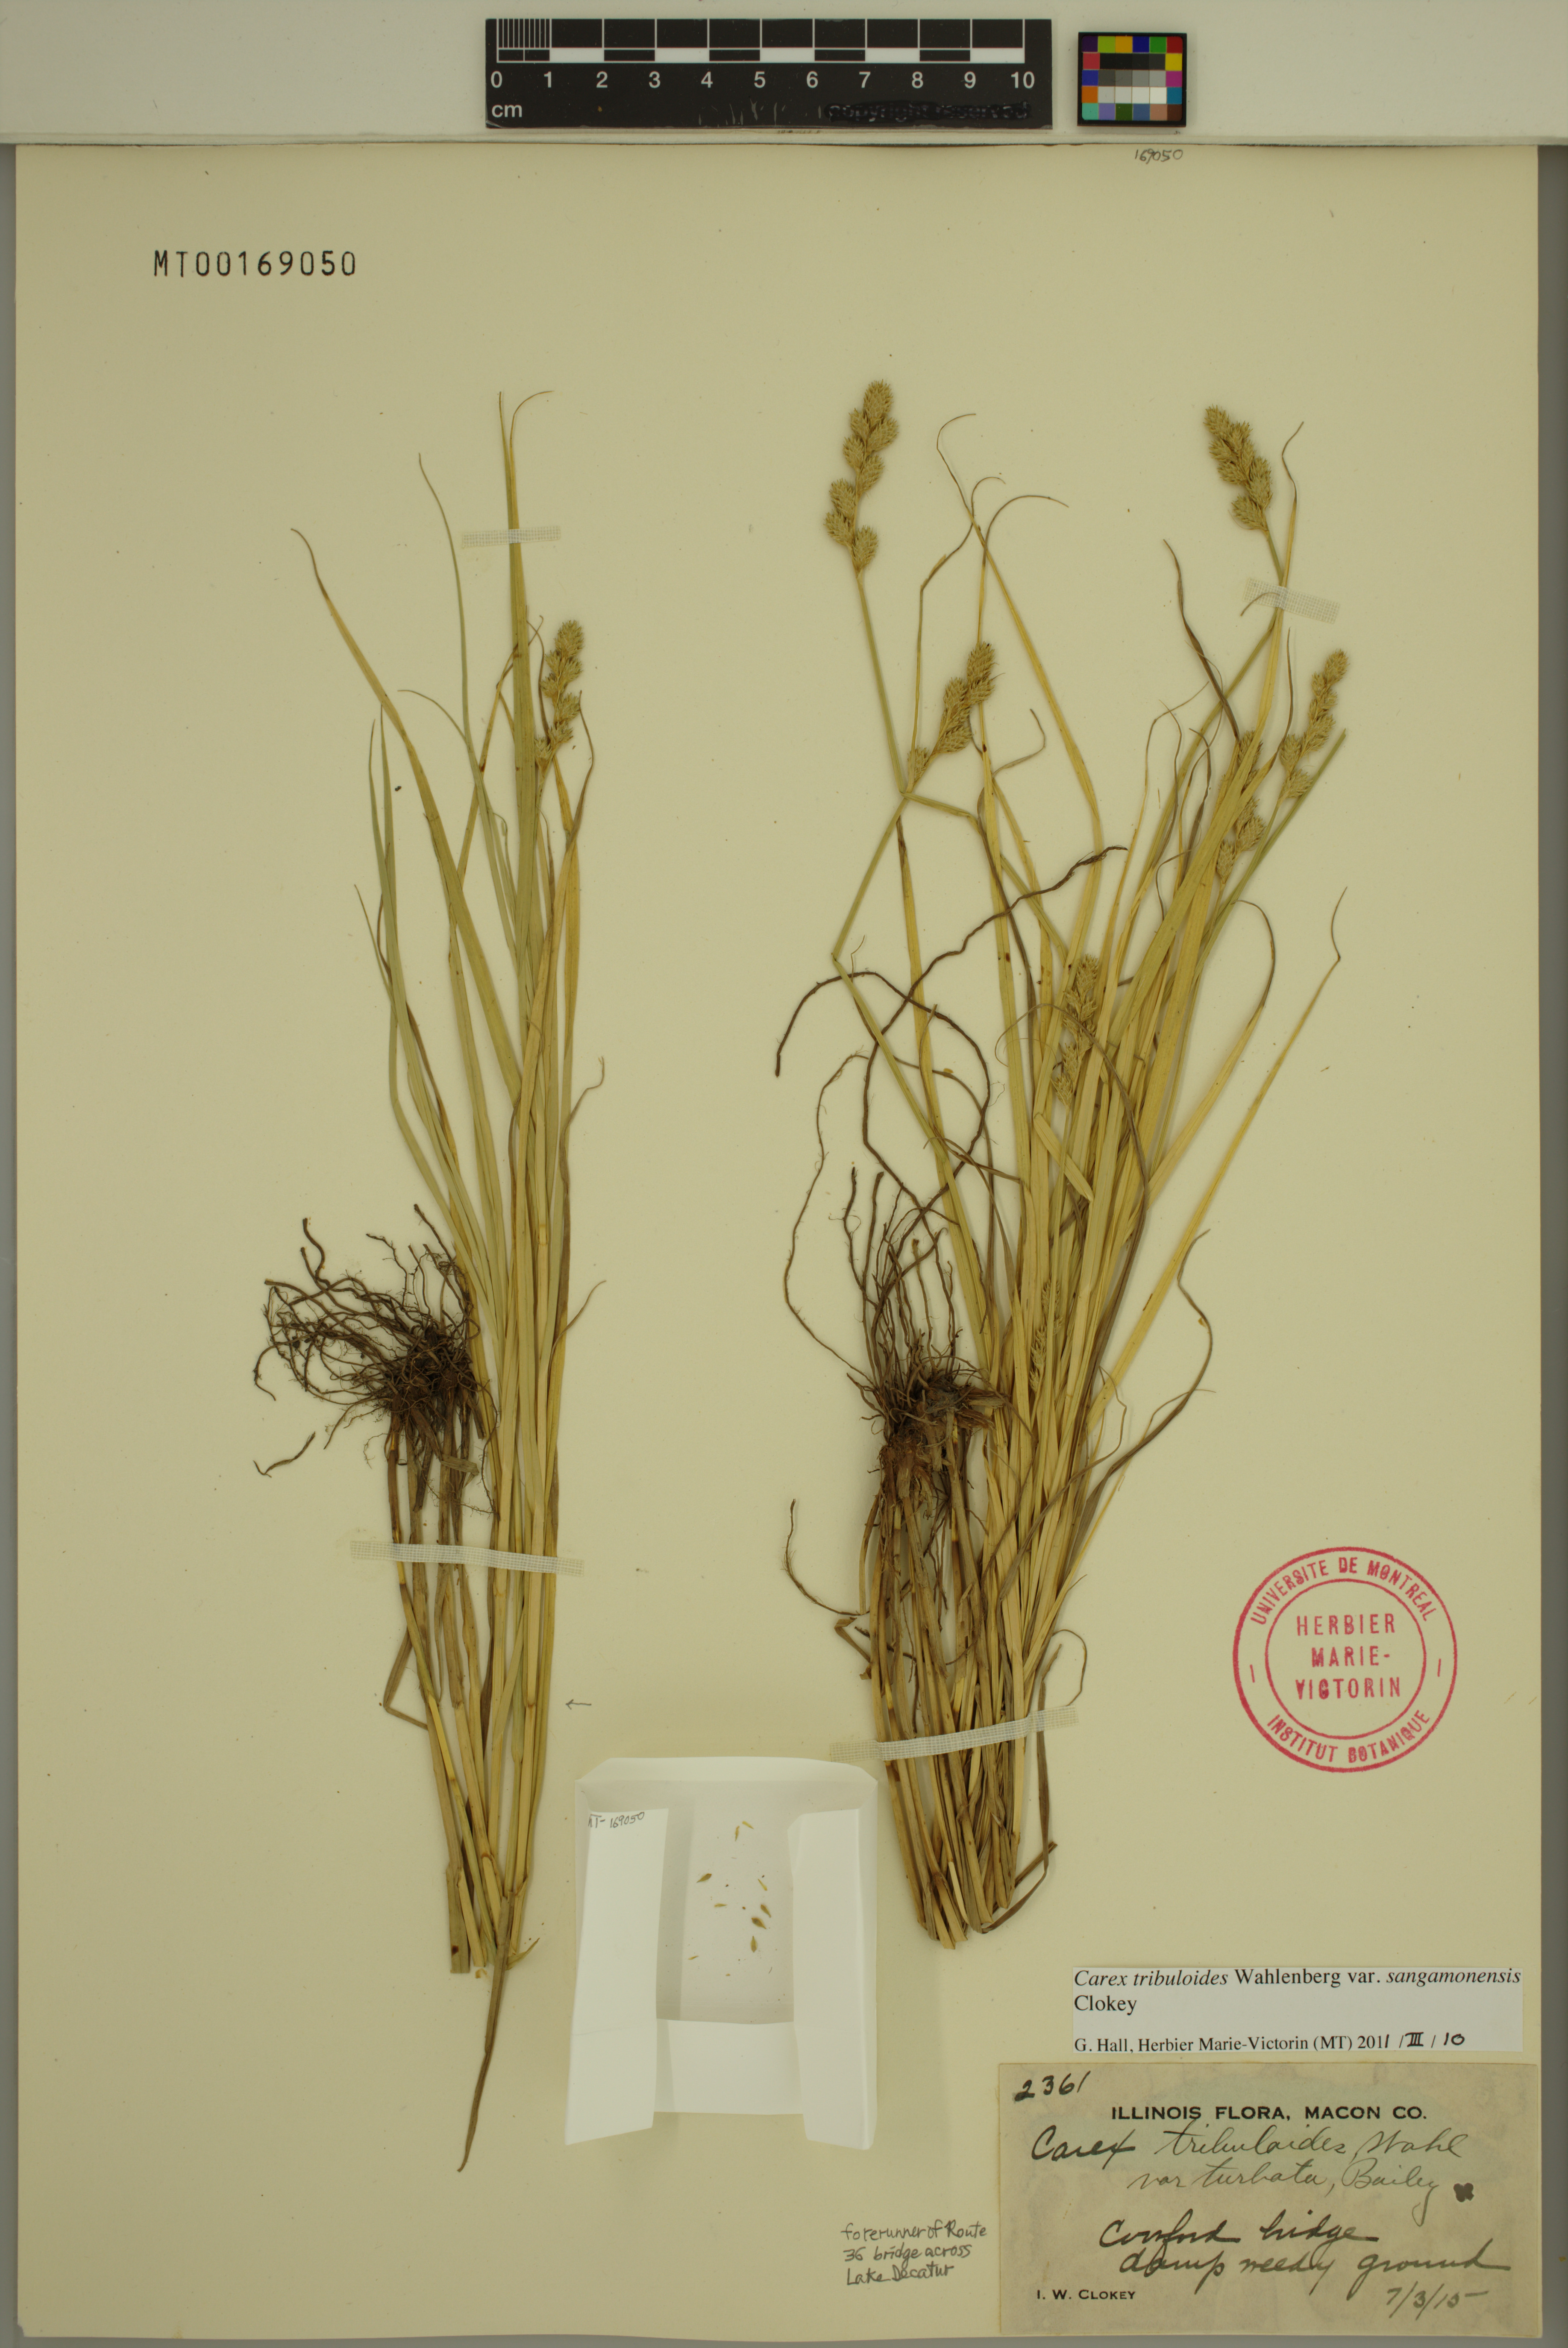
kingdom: Plantae
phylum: Tracheophyta
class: Liliopsida
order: Poales
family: Cyperaceae
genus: Carex
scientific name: Carex tribuloides
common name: Blunt broom sedge
